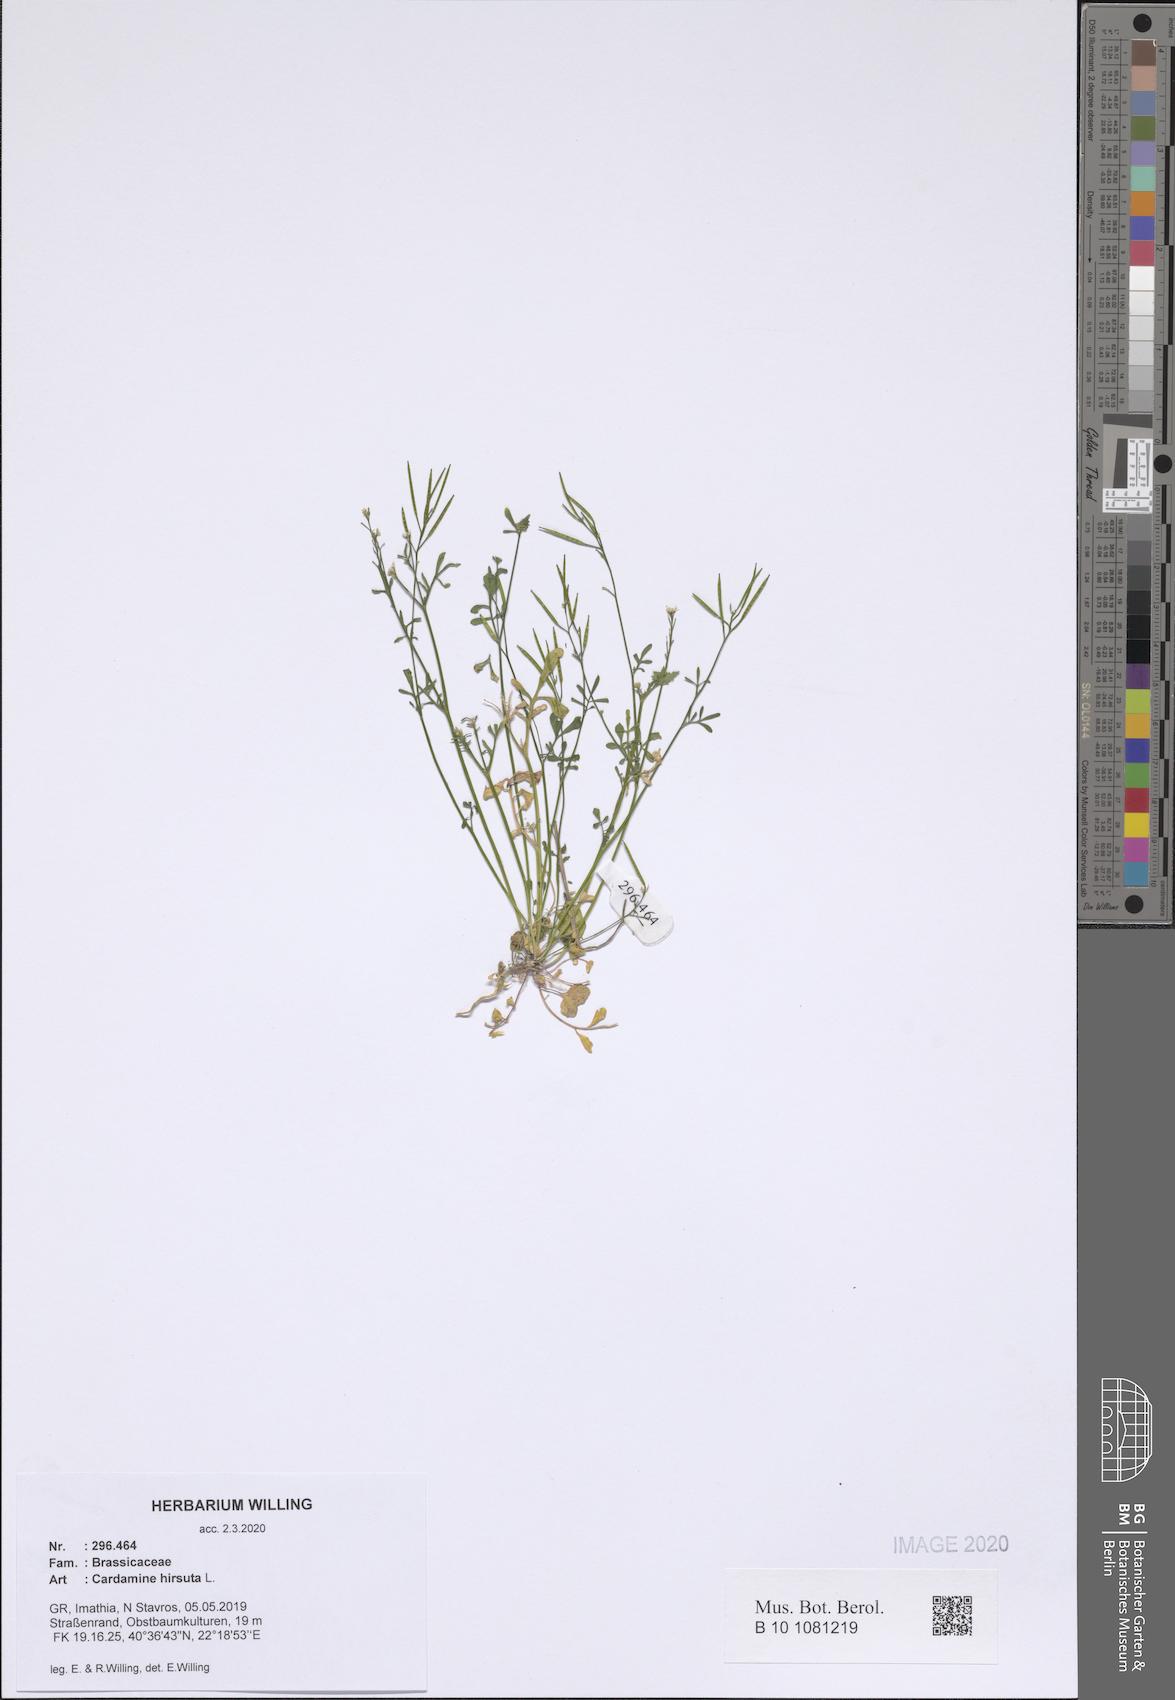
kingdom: Plantae
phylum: Tracheophyta
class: Magnoliopsida
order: Brassicales
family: Brassicaceae
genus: Cardamine
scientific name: Cardamine hirsuta
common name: Hairy bittercress
